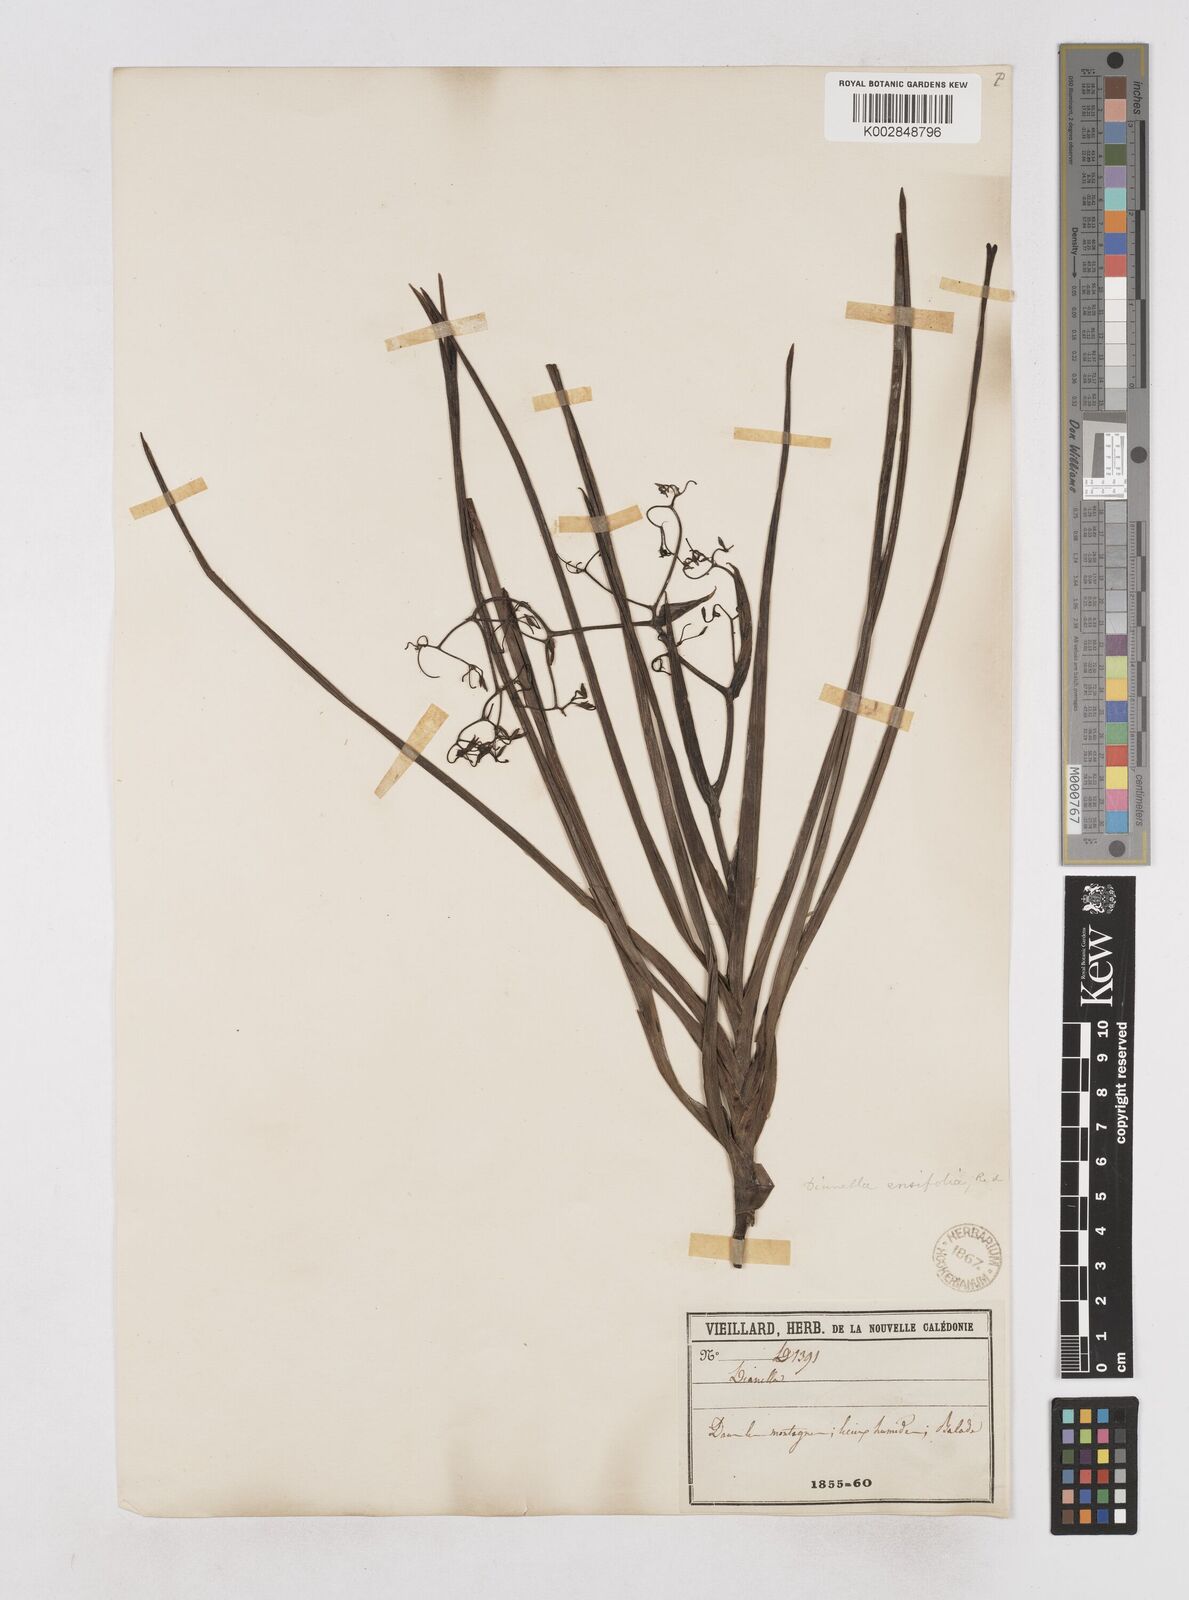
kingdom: Plantae
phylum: Tracheophyta
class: Liliopsida
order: Asparagales
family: Asphodelaceae
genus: Dianella
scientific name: Dianella adenanthera
